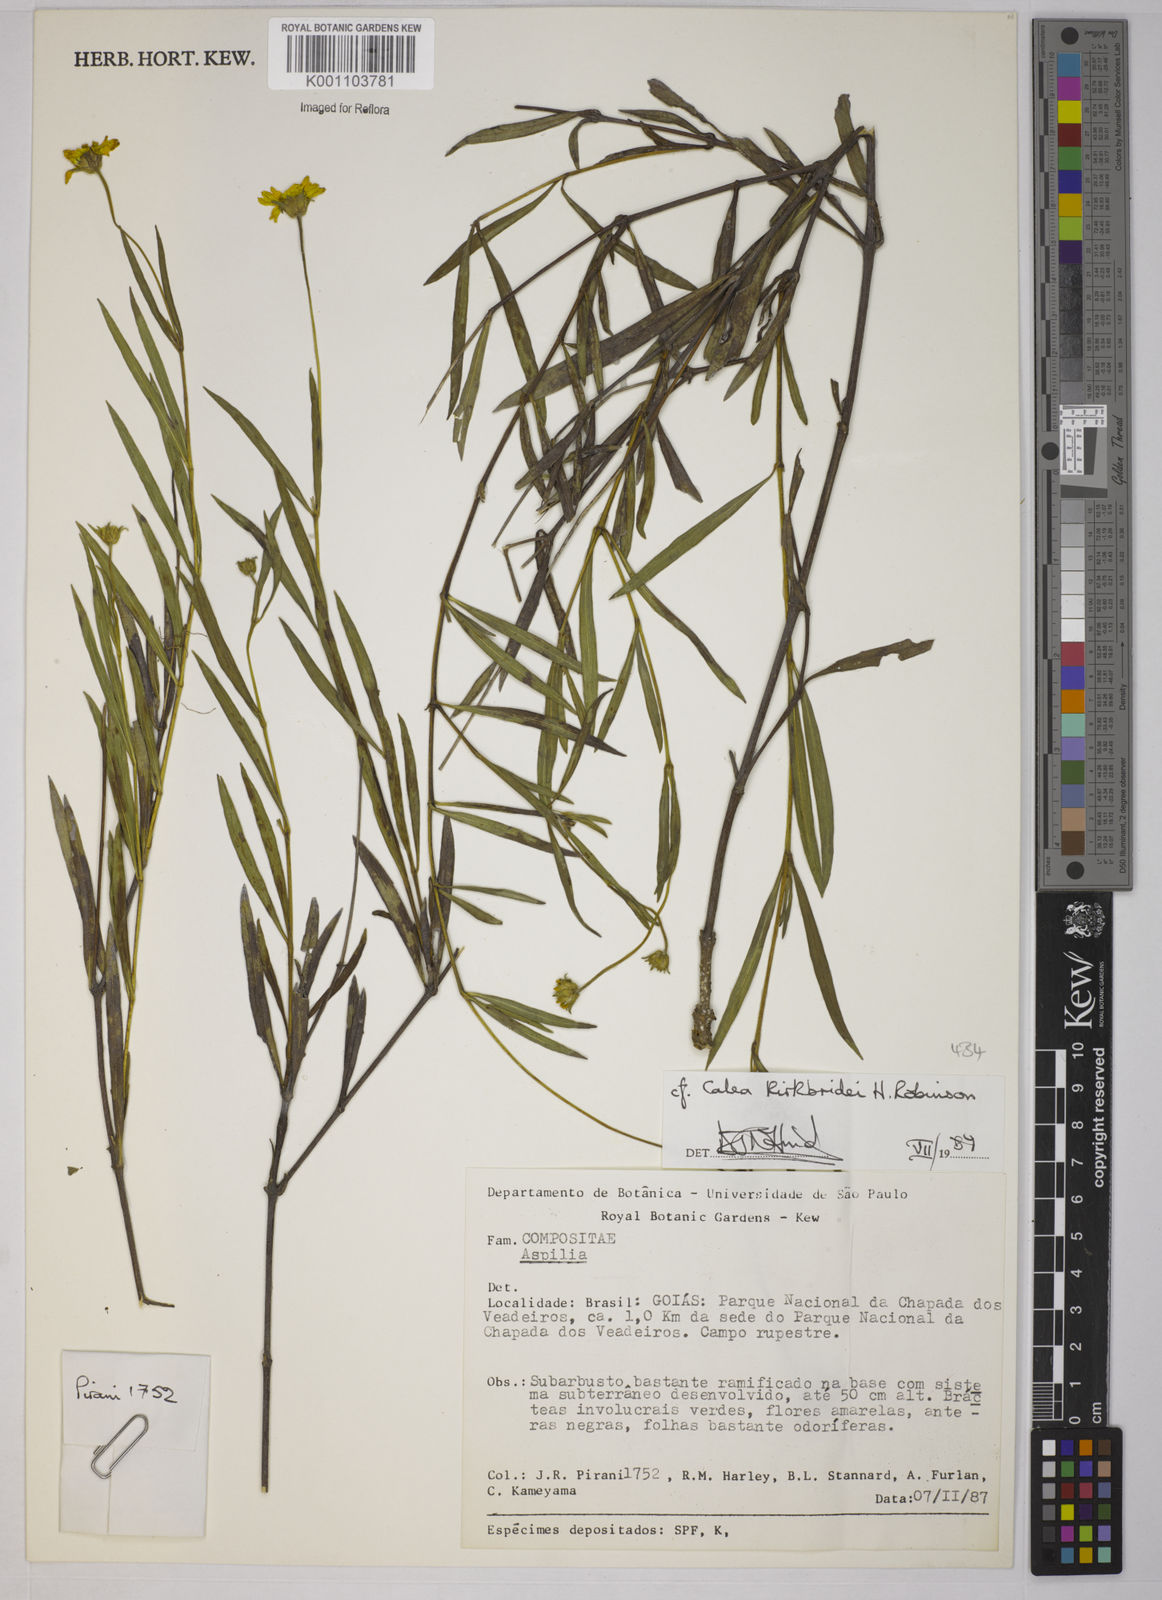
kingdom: Plantae
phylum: Tracheophyta
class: Magnoliopsida
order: Asterales
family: Asteraceae
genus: Calea
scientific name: Calea kirkbridei
